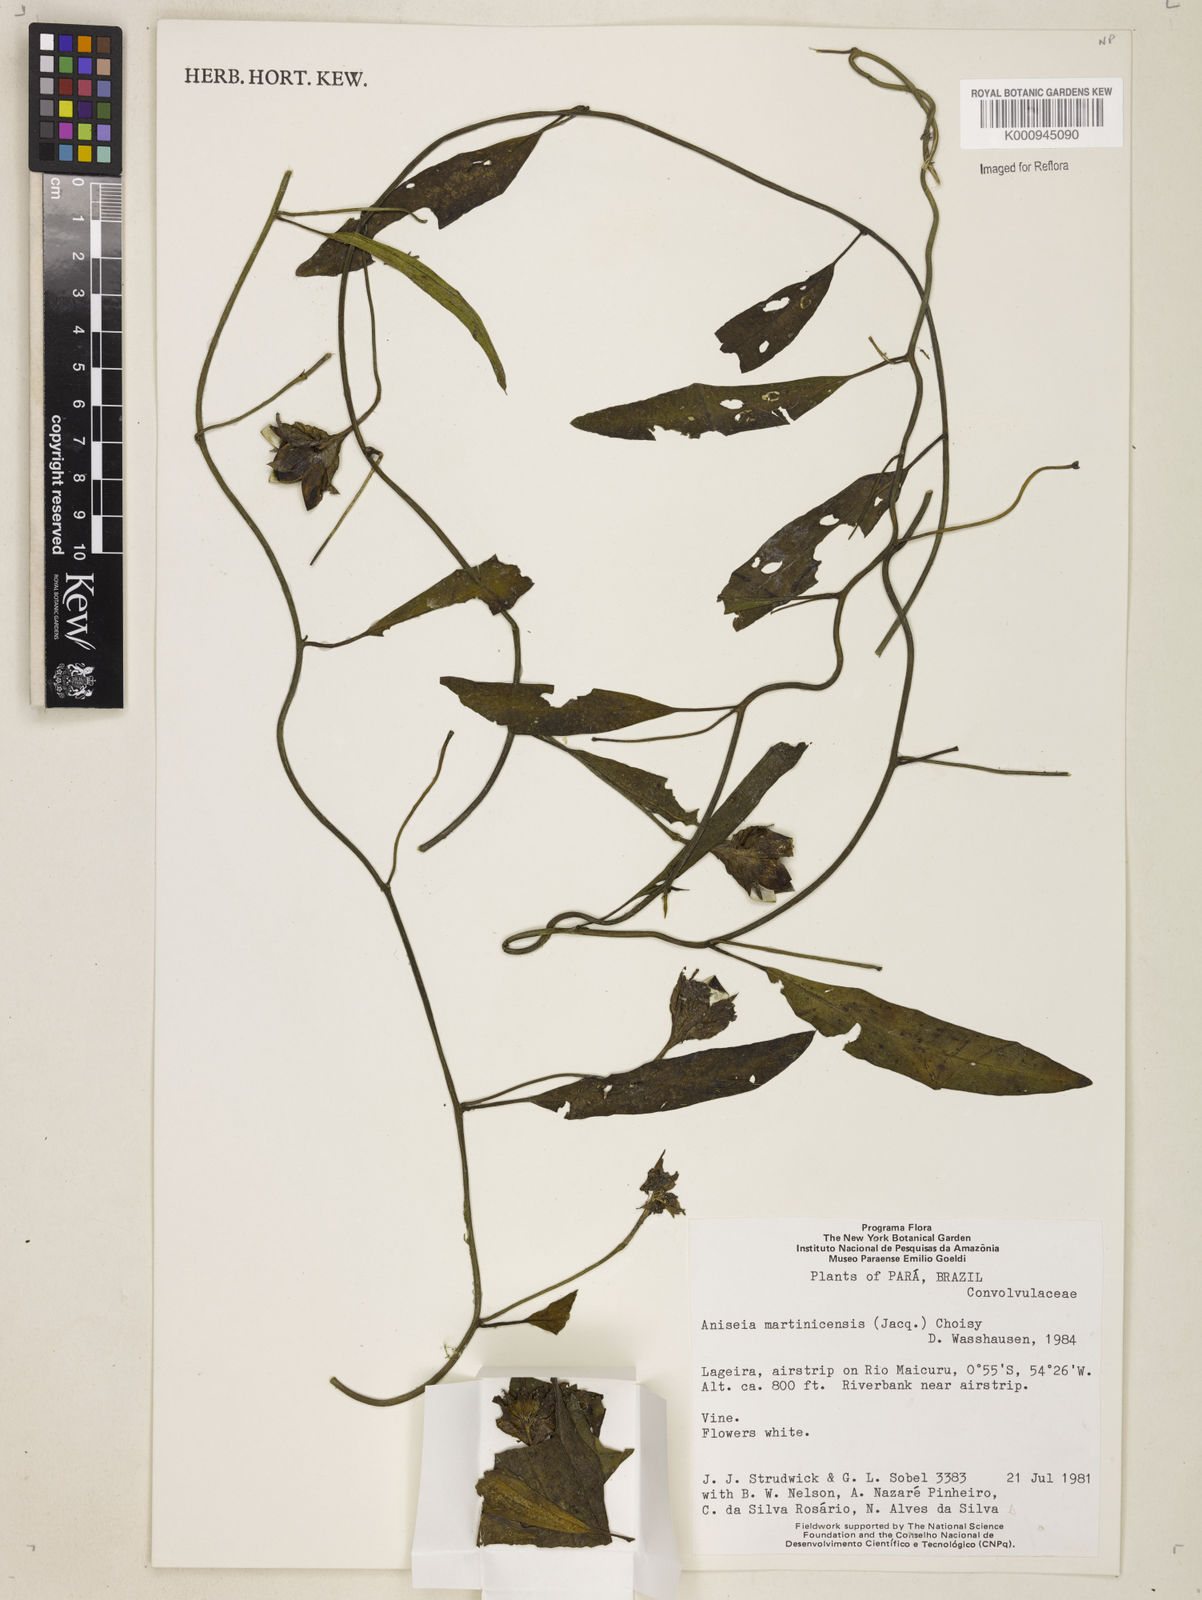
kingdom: Plantae
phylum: Tracheophyta
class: Magnoliopsida
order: Solanales
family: Convolvulaceae
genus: Aniseia
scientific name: Aniseia martinicensis
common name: Kulayadambu
